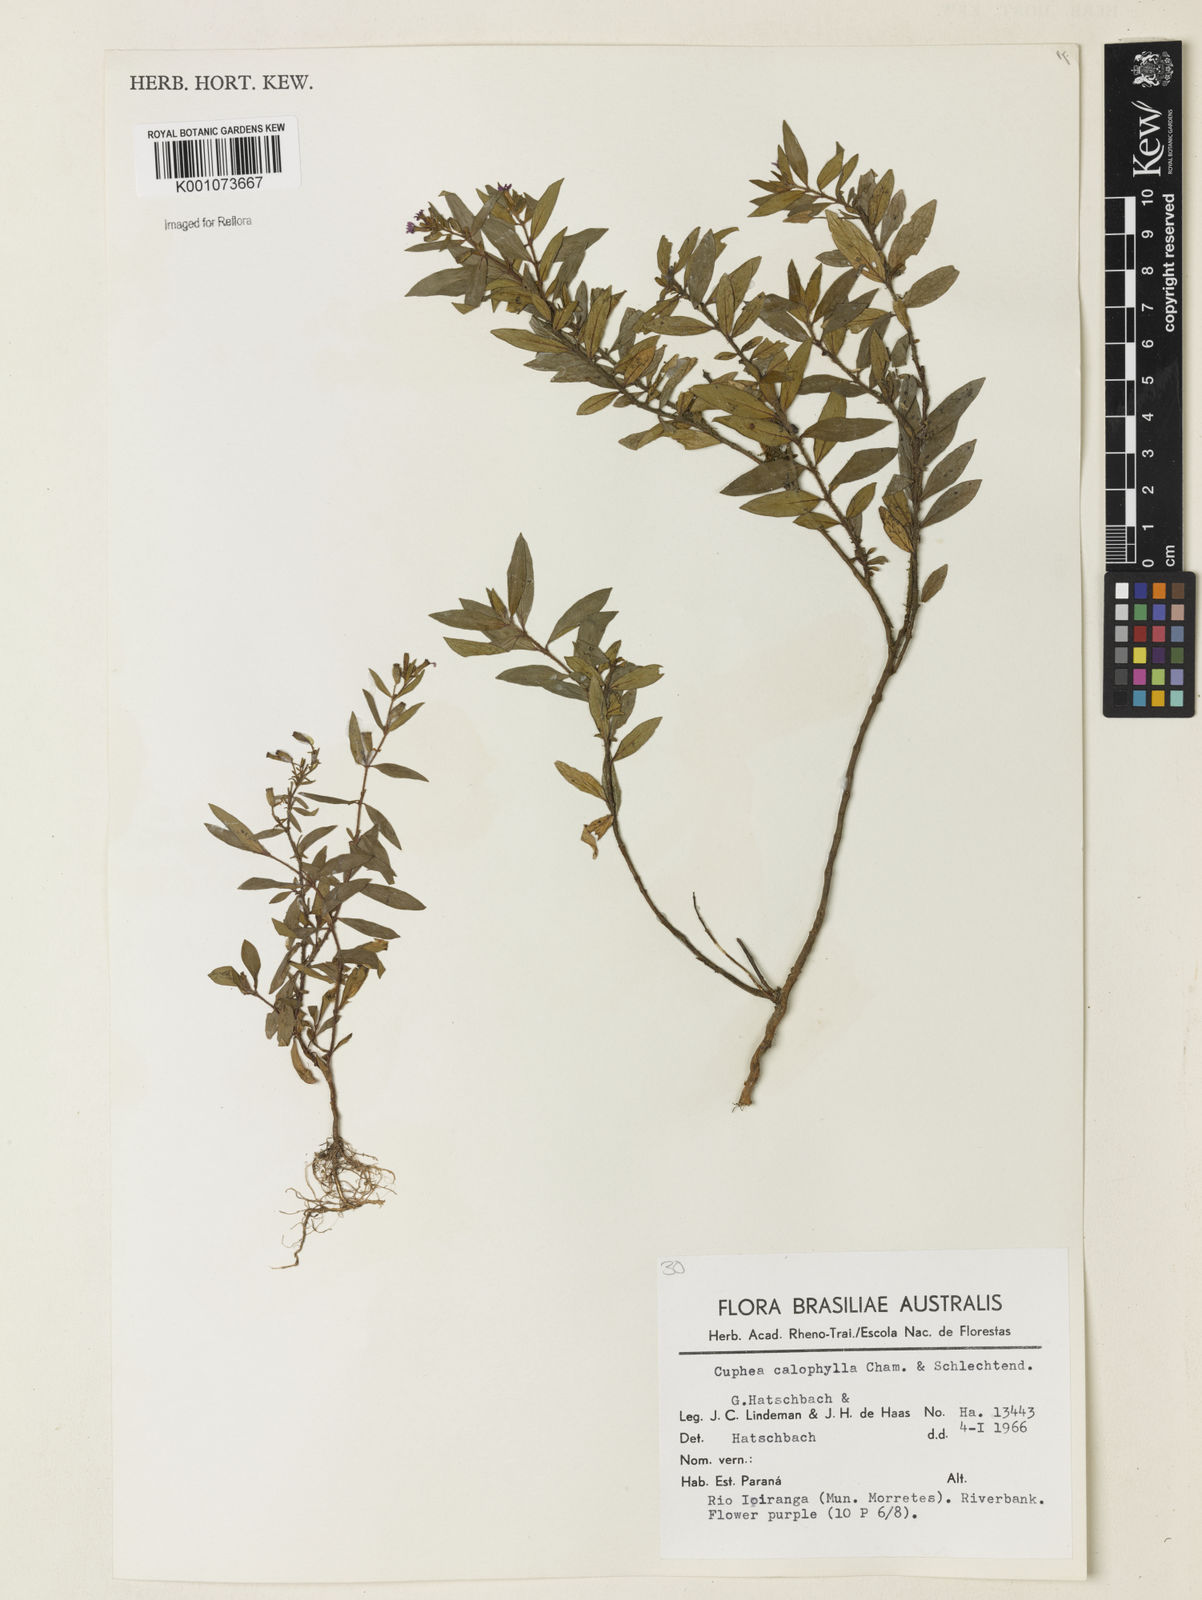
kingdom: Plantae
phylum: Tracheophyta
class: Magnoliopsida
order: Myrtales
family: Lythraceae
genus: Cuphea
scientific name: Cuphea calophylla
